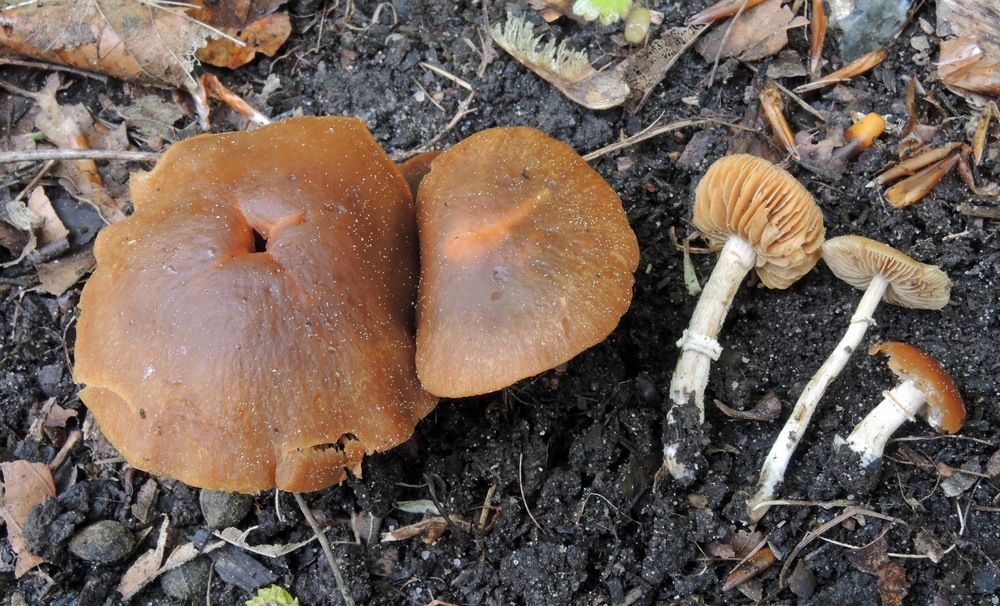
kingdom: Fungi
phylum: Basidiomycota
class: Agaricomycetes
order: Agaricales
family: Bolbitiaceae
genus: Conocybe
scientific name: Conocybe aporos
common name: tidlig dansehat
